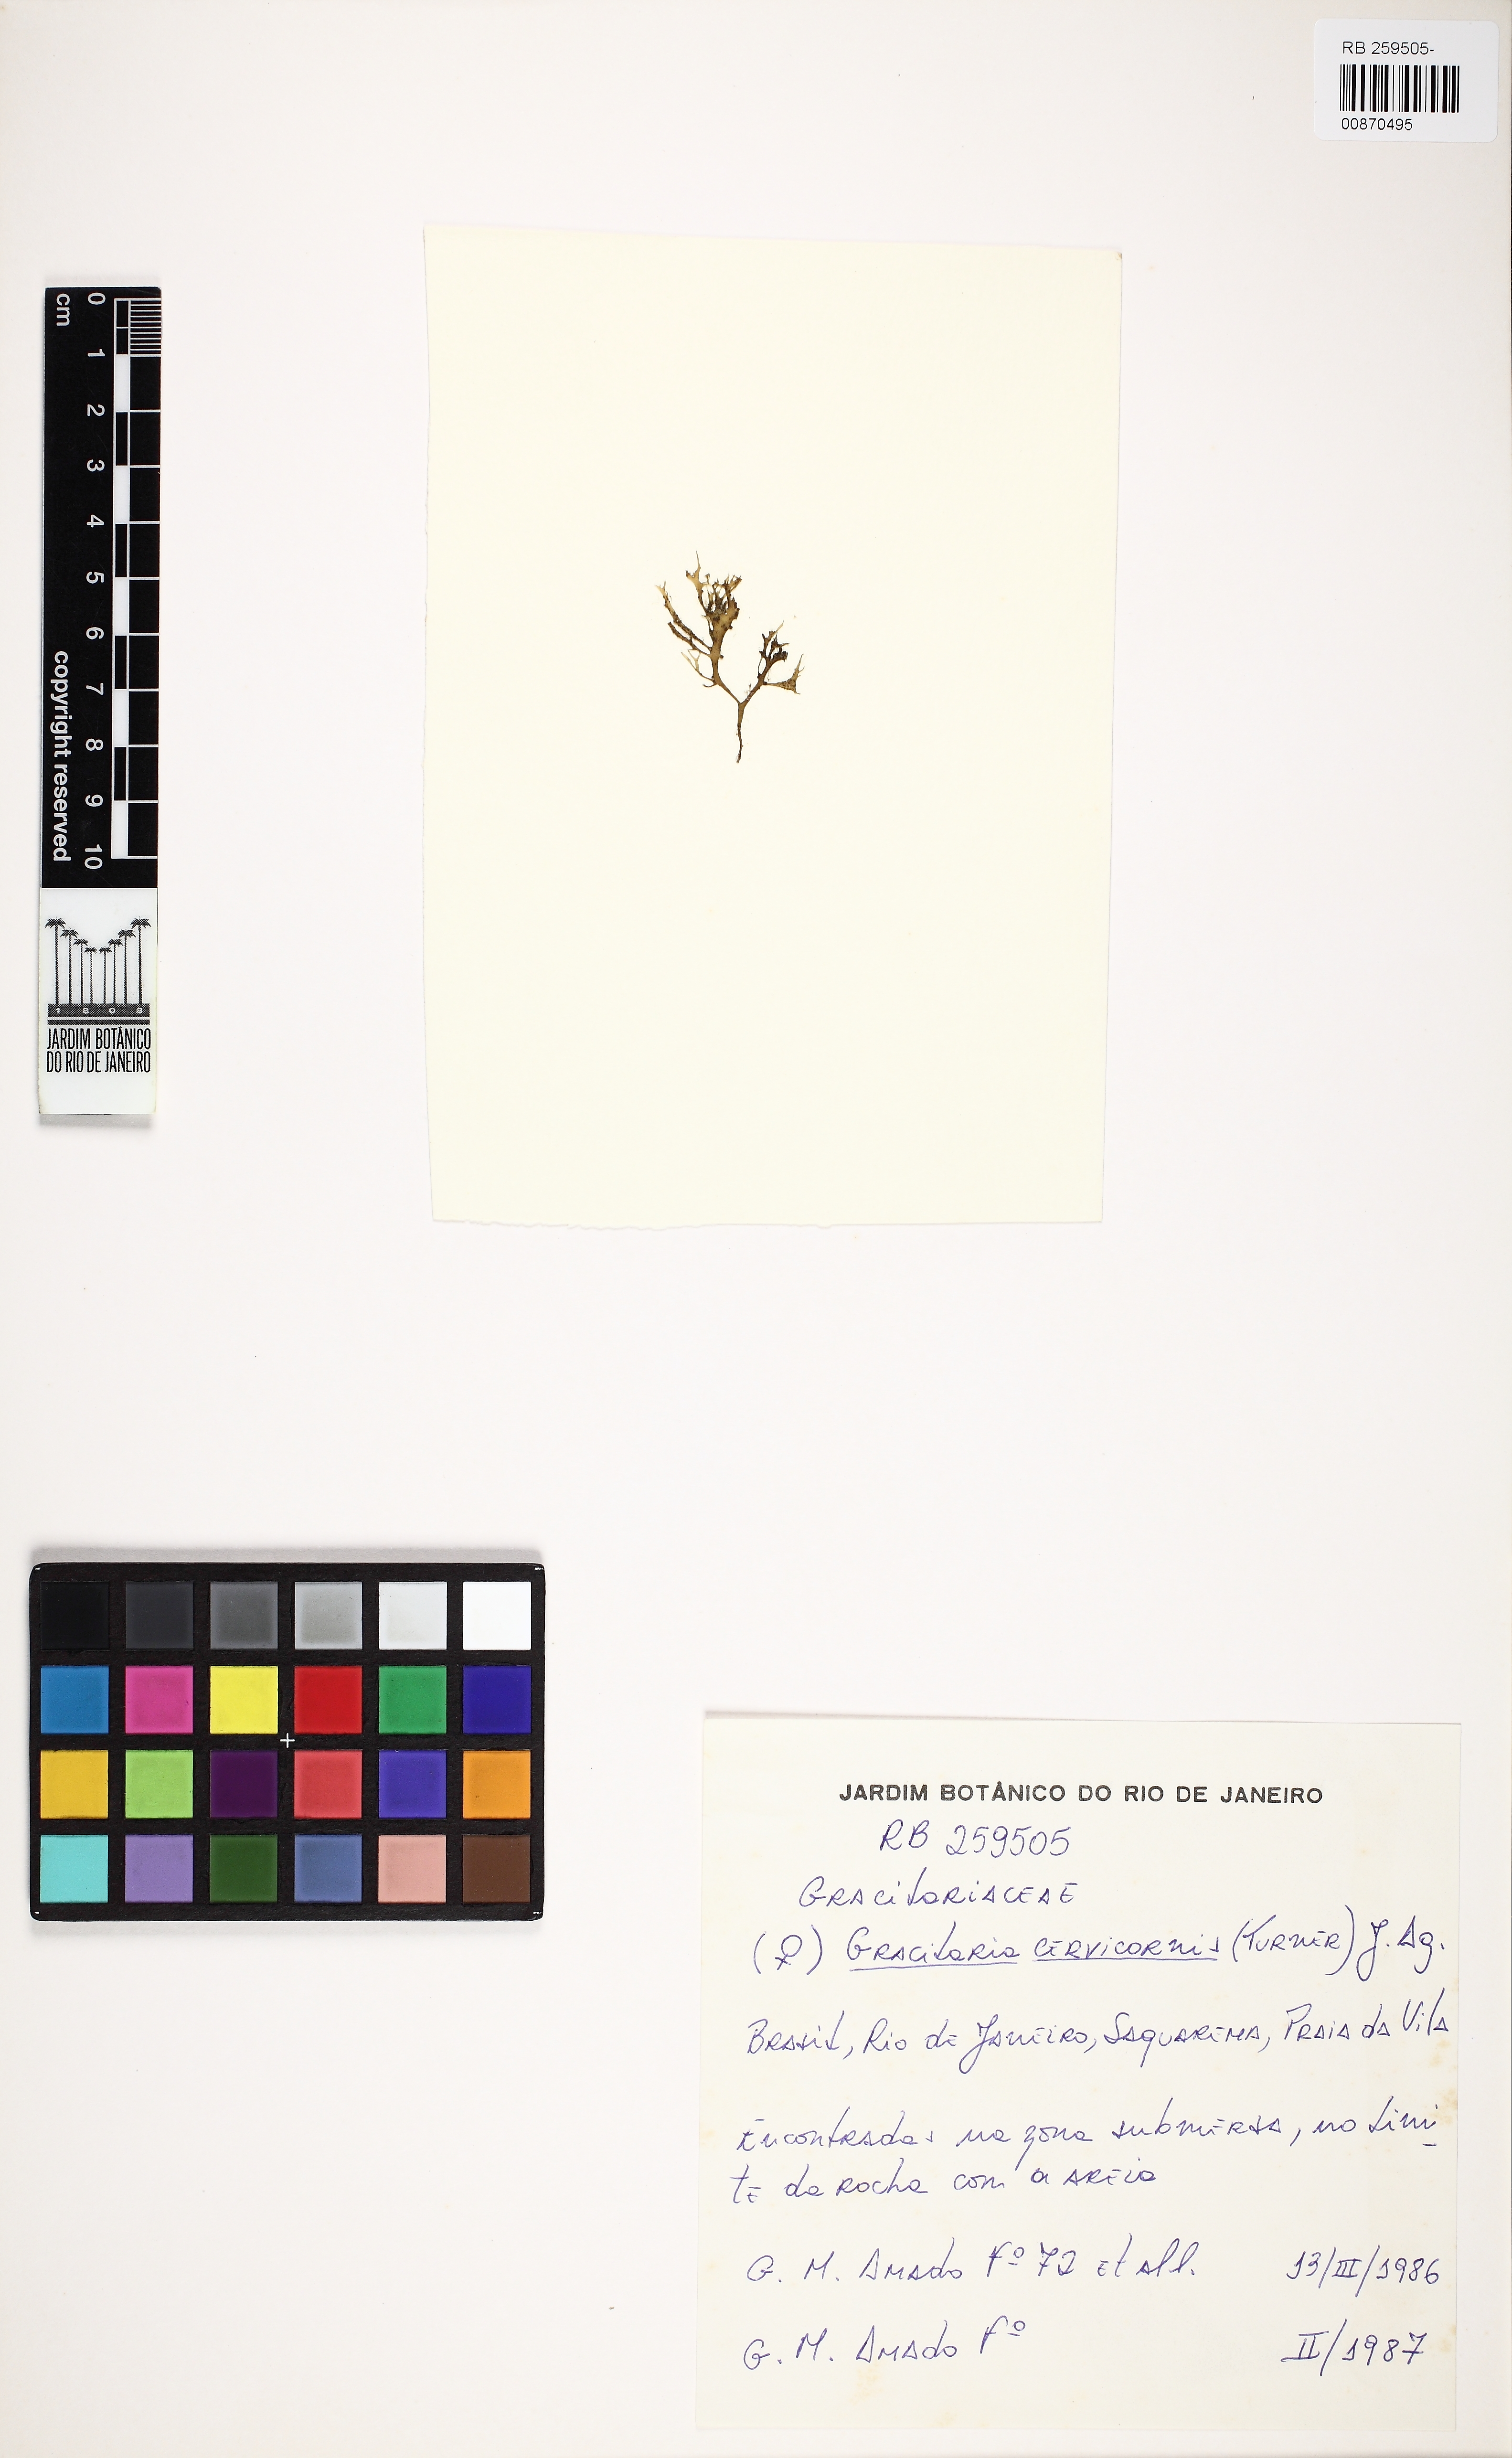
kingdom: Plantae
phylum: Rhodophyta
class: Florideophyceae
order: Gracilariales
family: Gracilariaceae
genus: Gracilaria
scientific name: Gracilaria cervicornis
